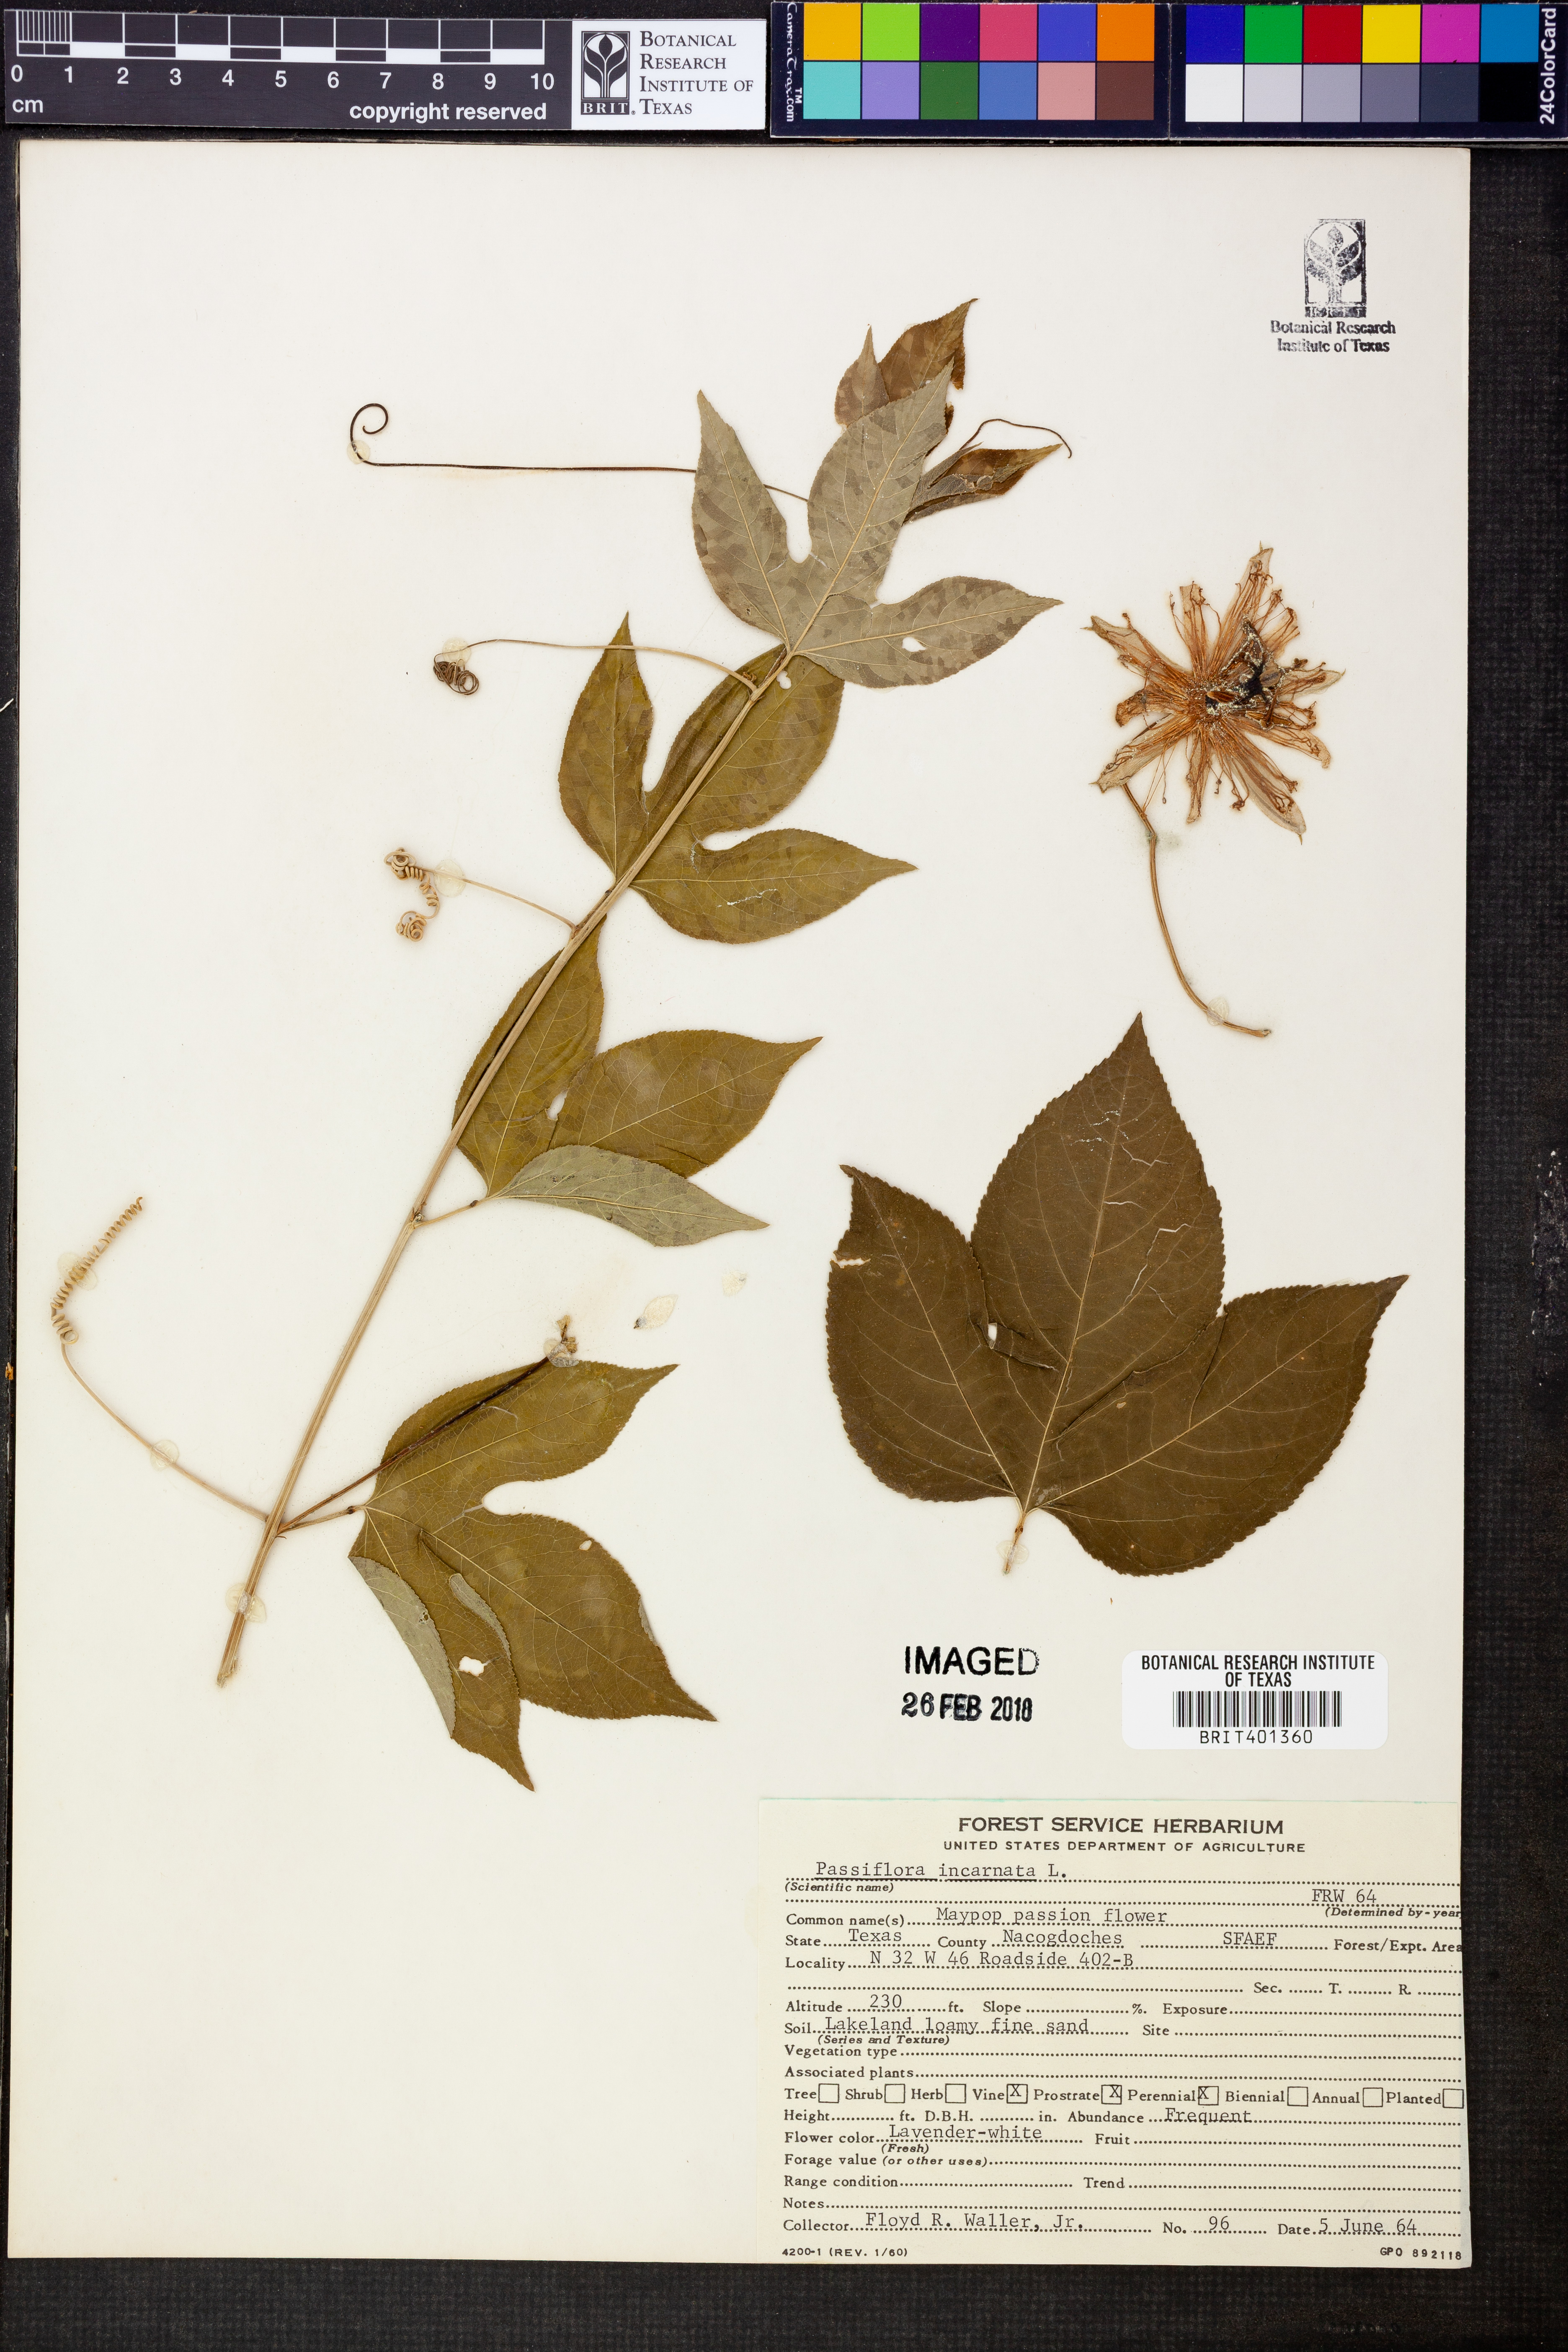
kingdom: Plantae
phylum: Tracheophyta
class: Magnoliopsida
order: Malpighiales
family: Passifloraceae
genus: Passiflora
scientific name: Passiflora incarnata
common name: Apricot-vine
